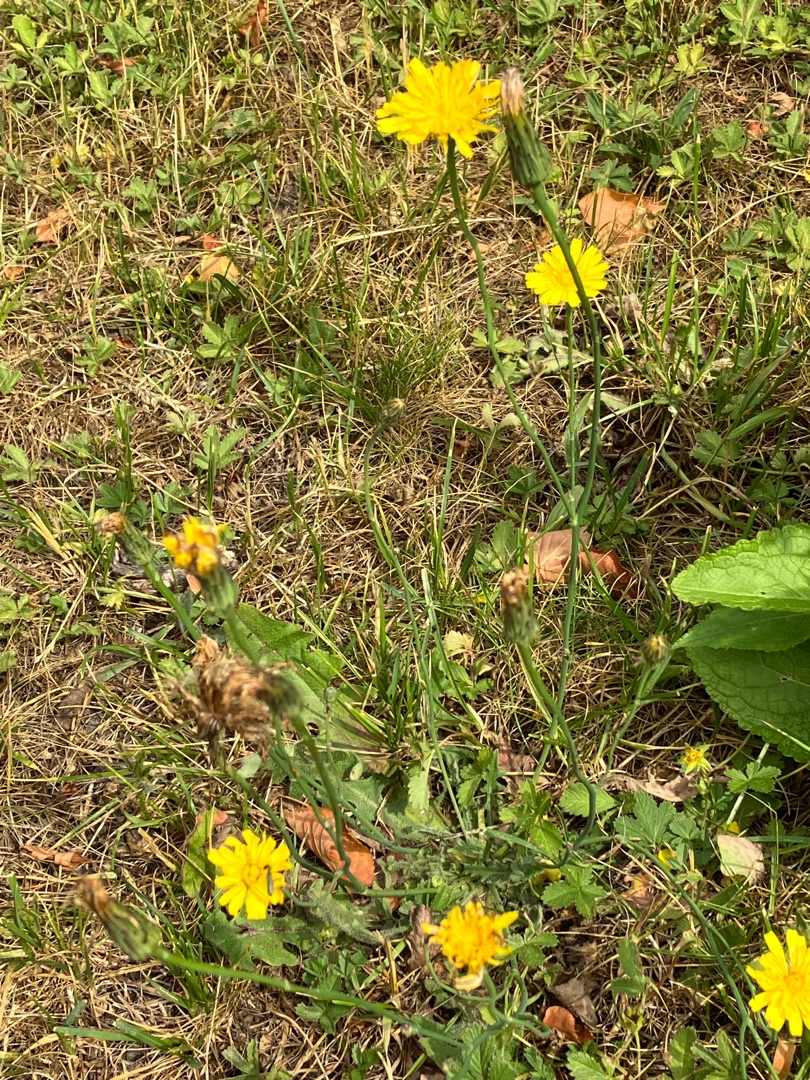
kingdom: Plantae
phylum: Tracheophyta
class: Magnoliopsida
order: Asterales
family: Asteraceae
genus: Hypochaeris
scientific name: Hypochaeris radicata
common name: Almindelig kongepen
